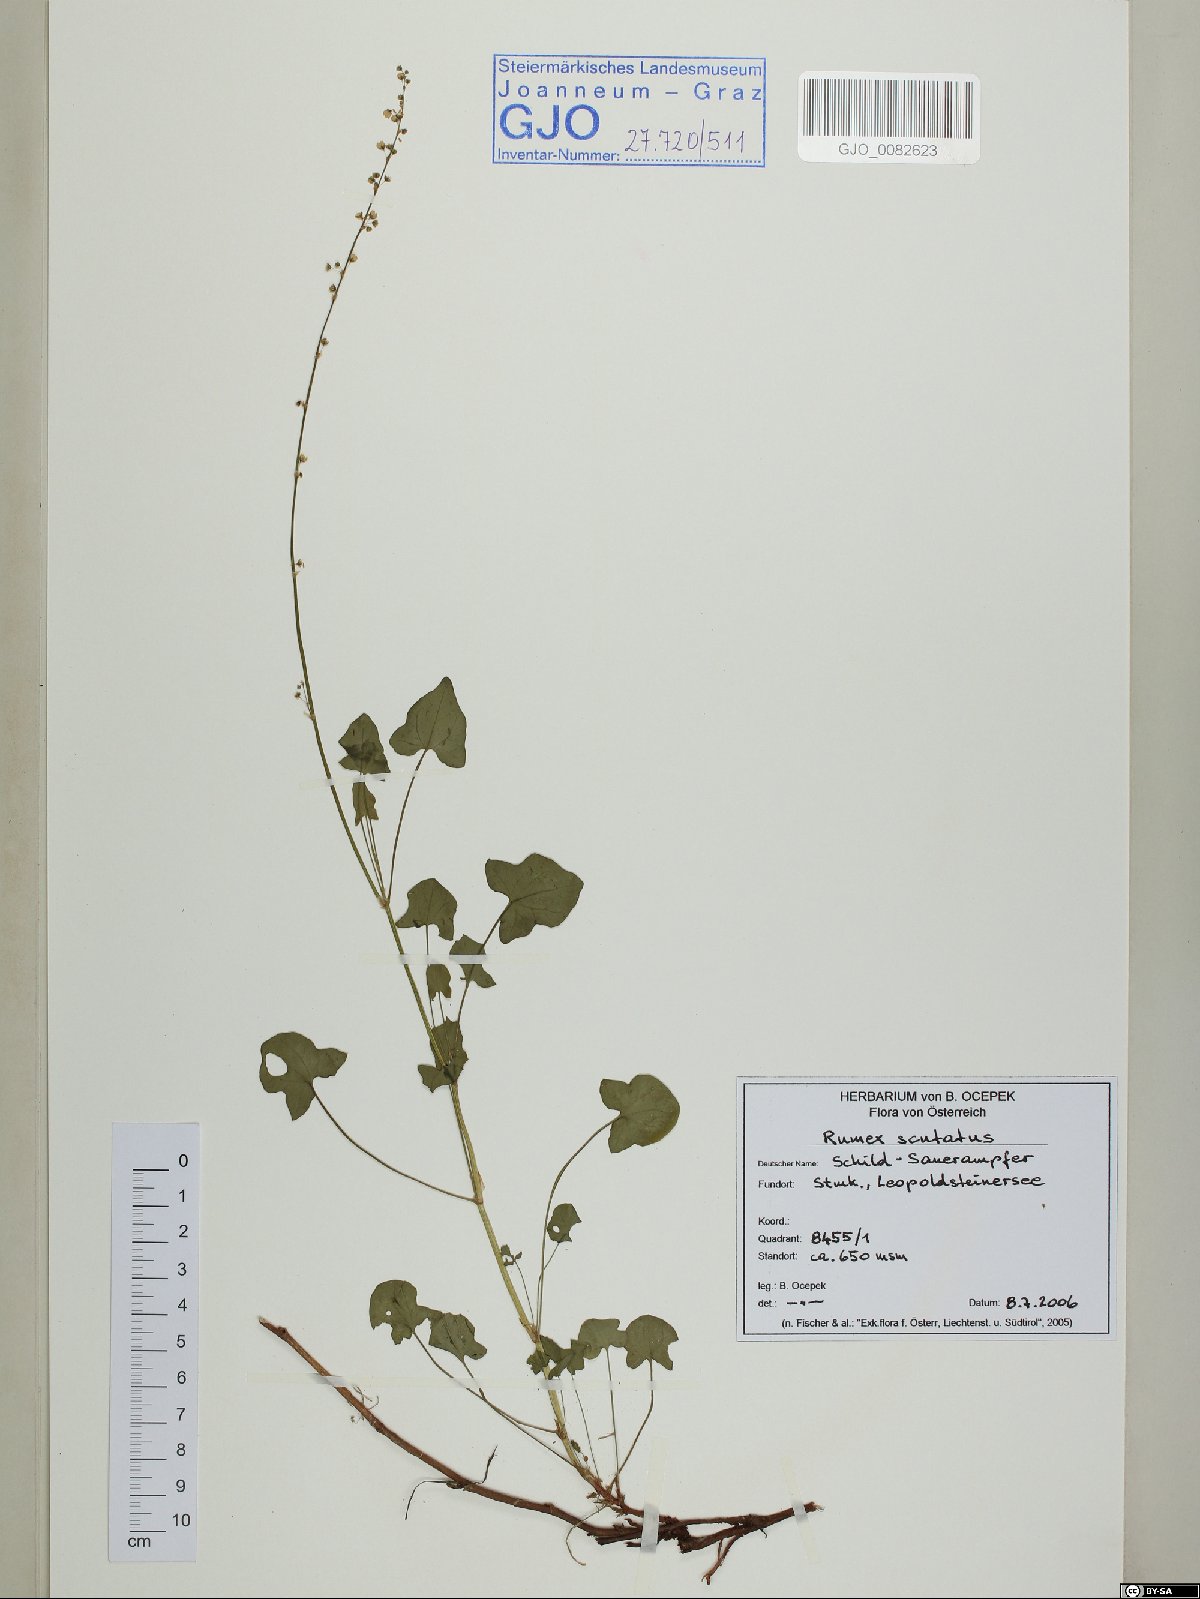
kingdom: Plantae
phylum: Tracheophyta
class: Magnoliopsida
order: Caryophyllales
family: Polygonaceae
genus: Rumex
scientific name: Rumex scutatus
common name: French sorrel
